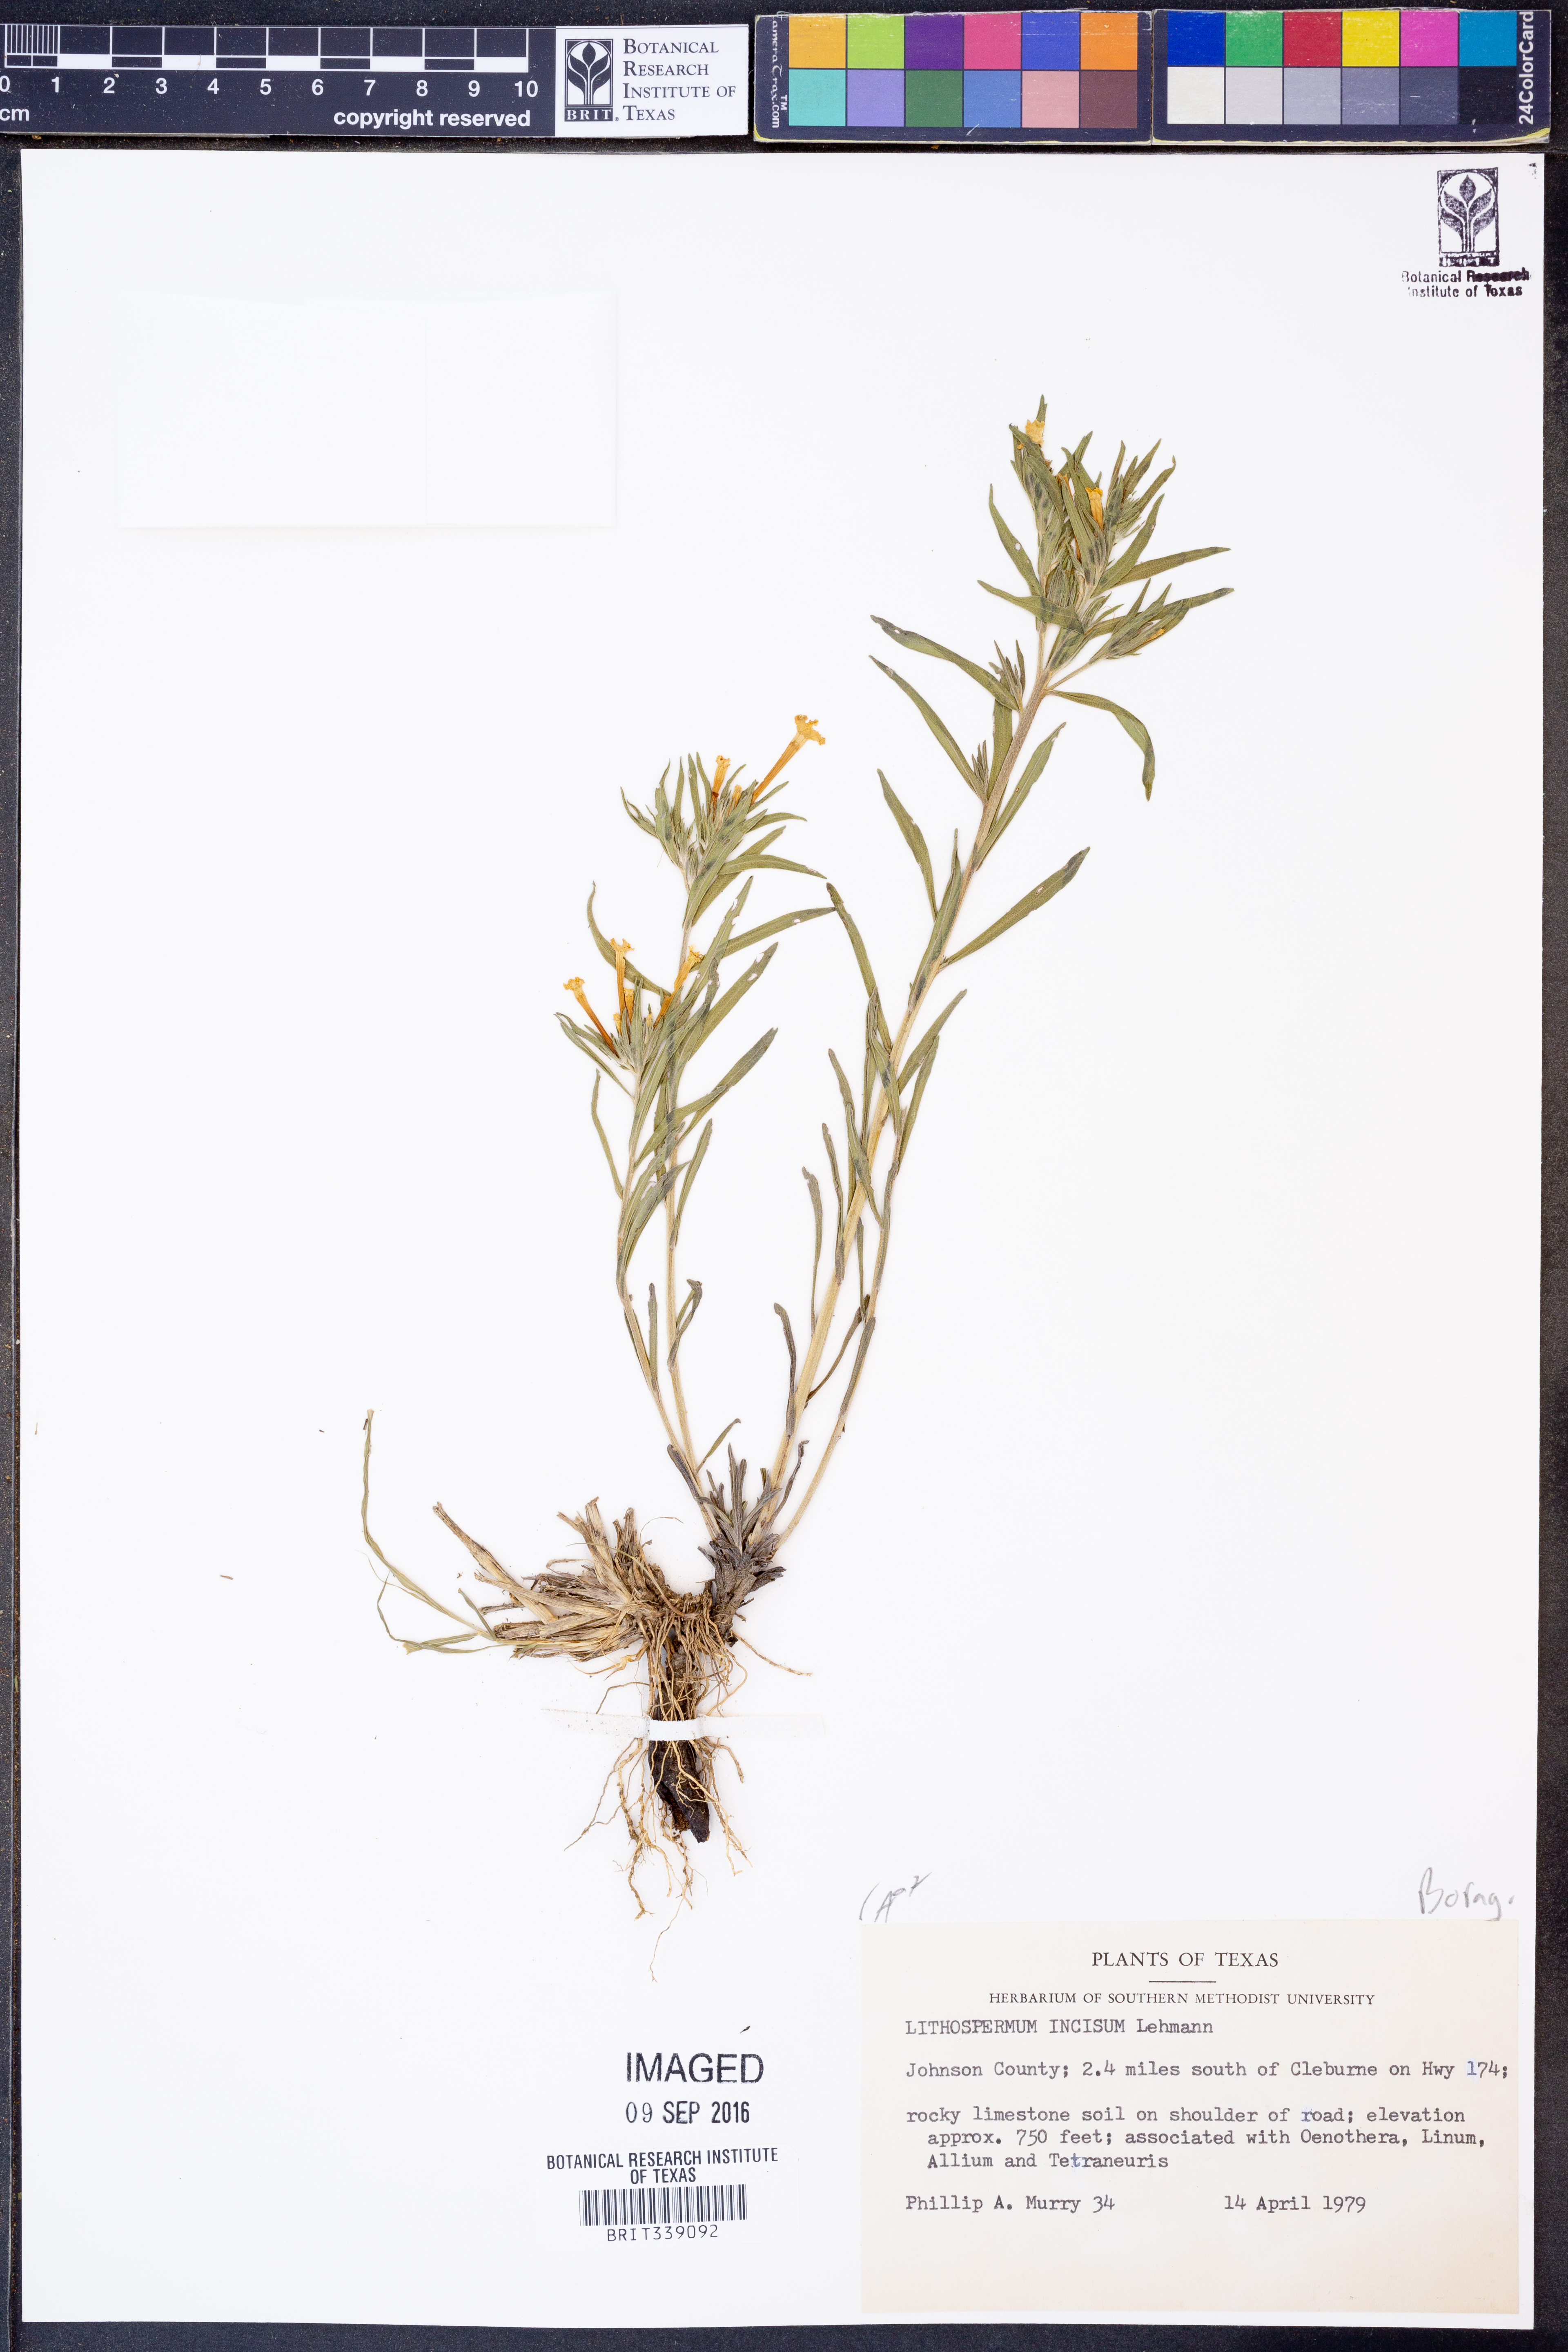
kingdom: Plantae
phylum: Tracheophyta
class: Magnoliopsida
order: Boraginales
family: Boraginaceae
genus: Lithospermum
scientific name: Lithospermum incisum
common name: Fringed gromwell
